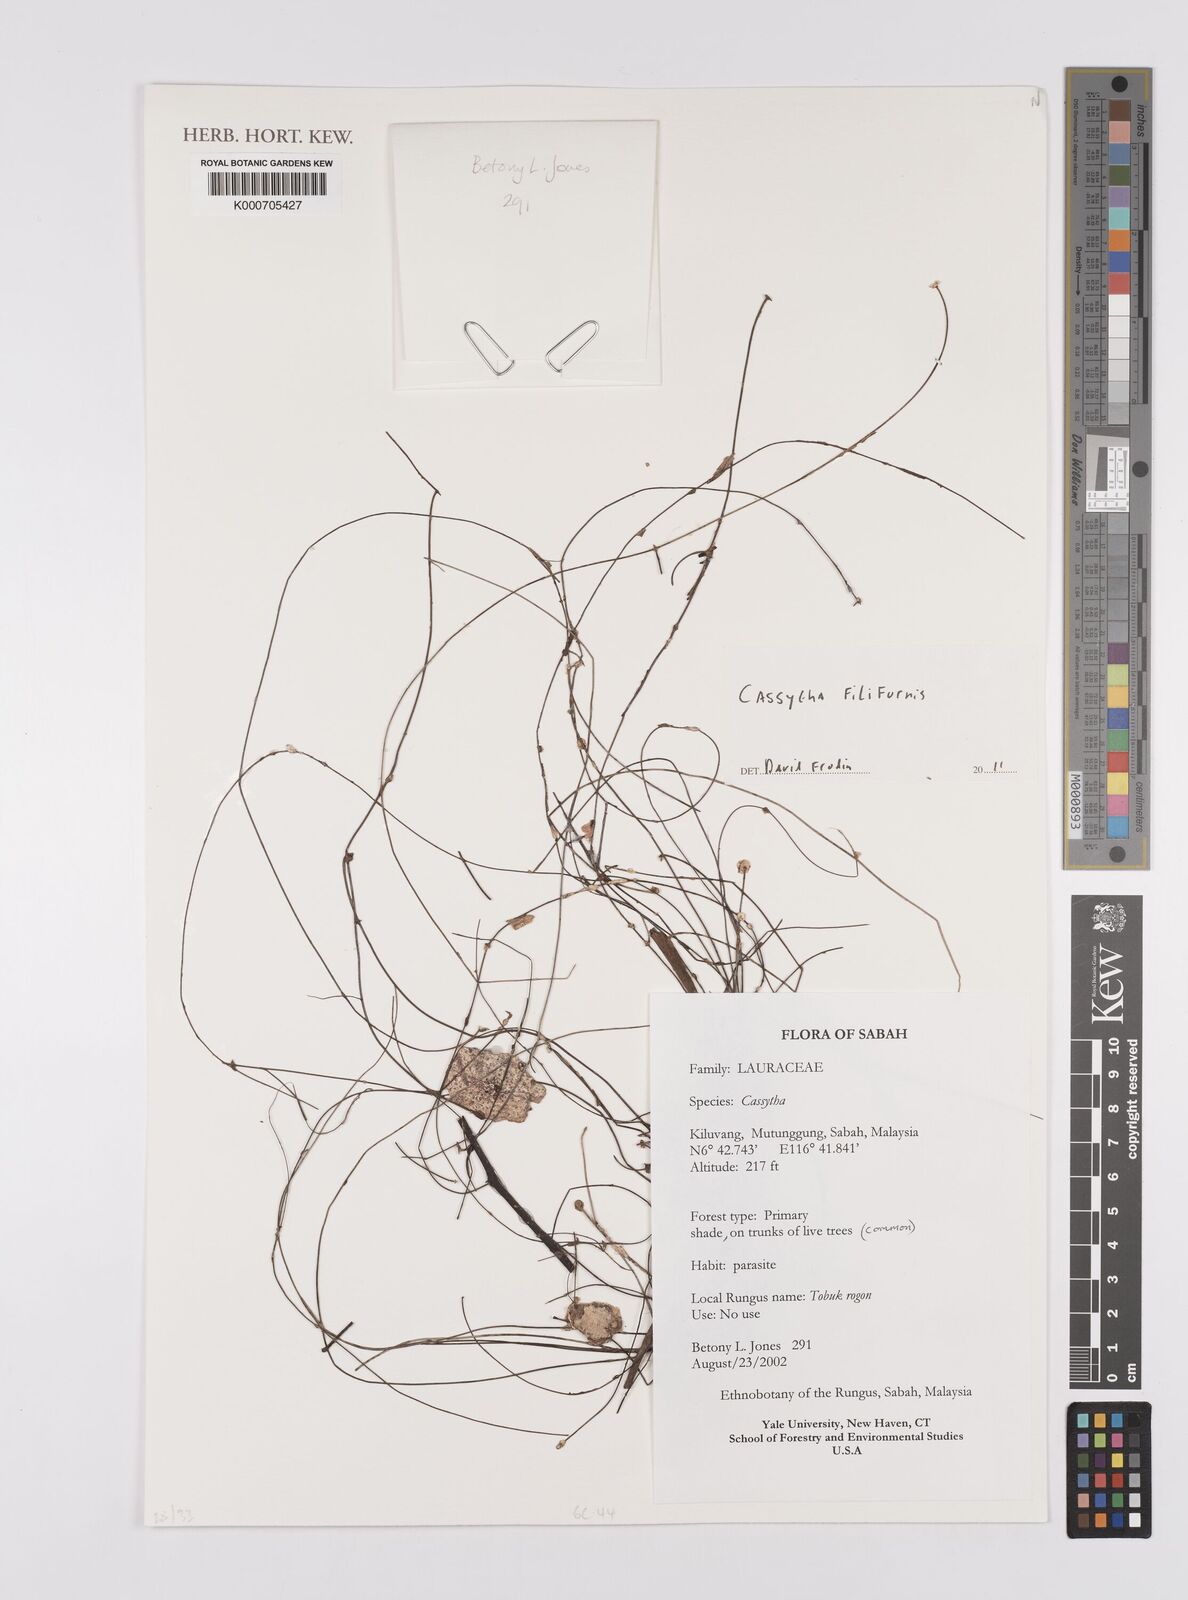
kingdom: Plantae
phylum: Tracheophyta
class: Magnoliopsida
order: Laurales
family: Lauraceae
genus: Cassytha
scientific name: Cassytha filiformis
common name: Dodder-laurel
